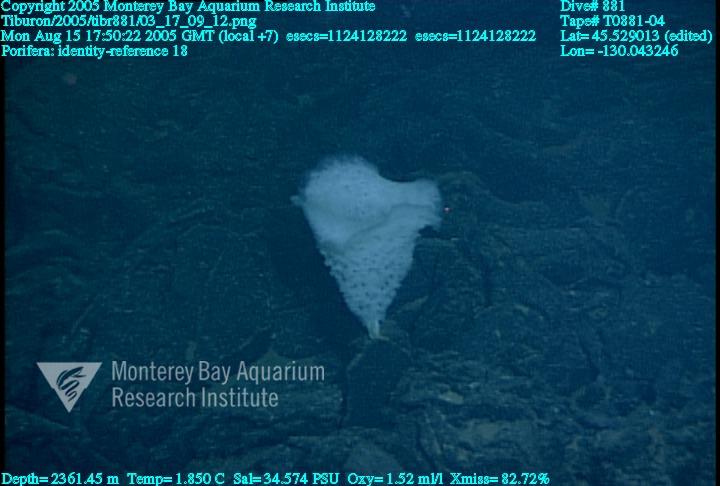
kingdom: Animalia
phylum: Porifera
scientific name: Porifera
